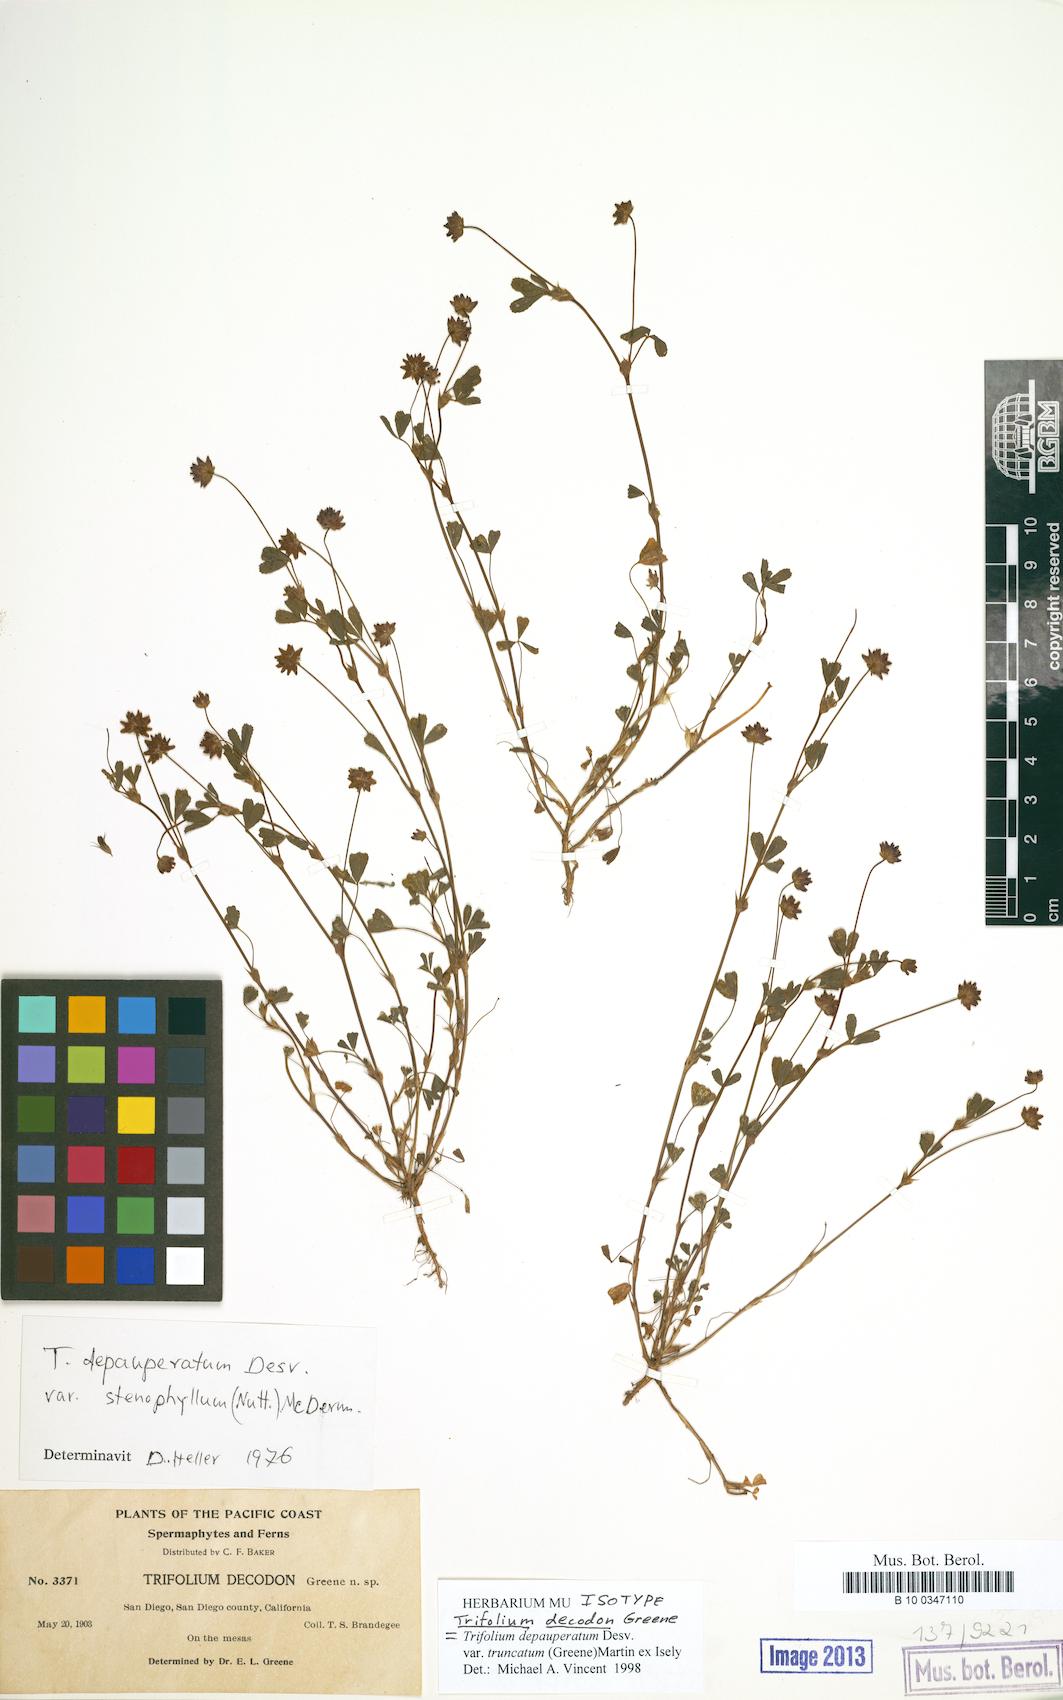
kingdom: Plantae
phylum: Tracheophyta
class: Magnoliopsida
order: Fabales
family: Fabaceae
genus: Trifolium
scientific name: Trifolium depauperatum
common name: Poverty clover
